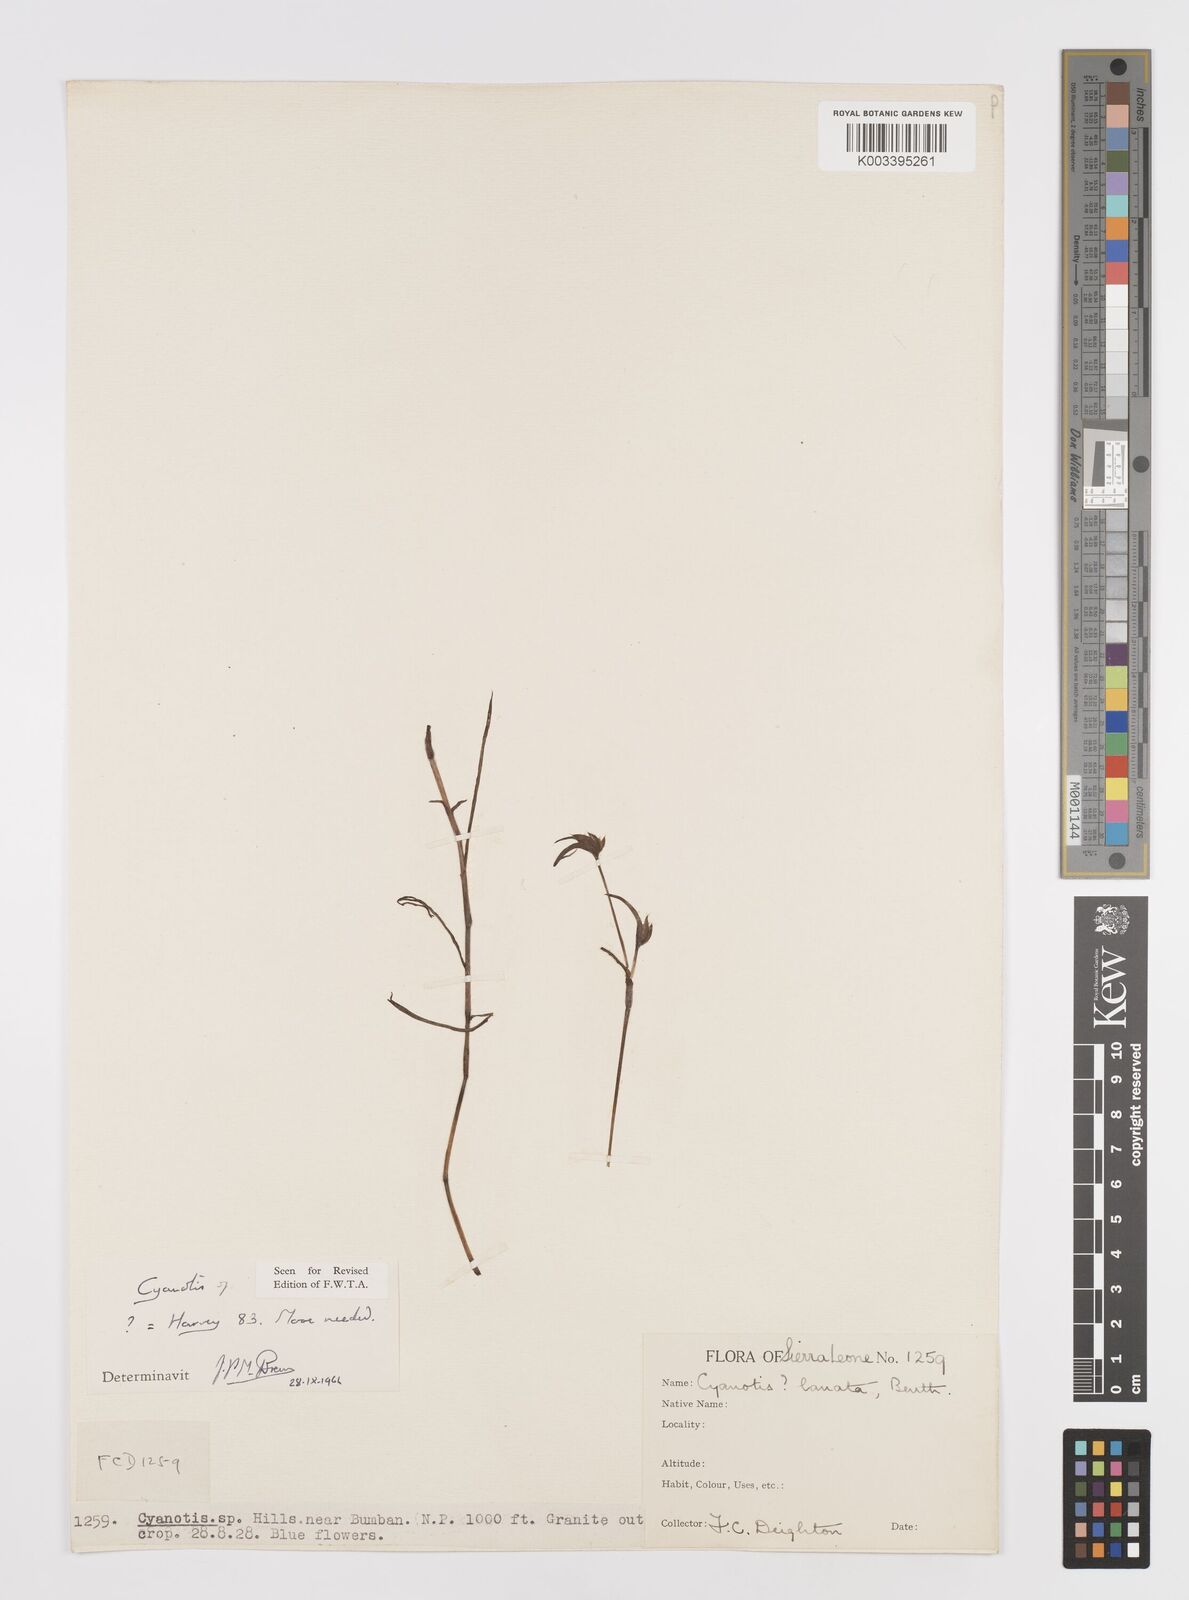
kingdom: Plantae
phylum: Tracheophyta
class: Liliopsida
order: Commelinales
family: Commelinaceae
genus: Cyanotis
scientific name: Cyanotis longifolia
